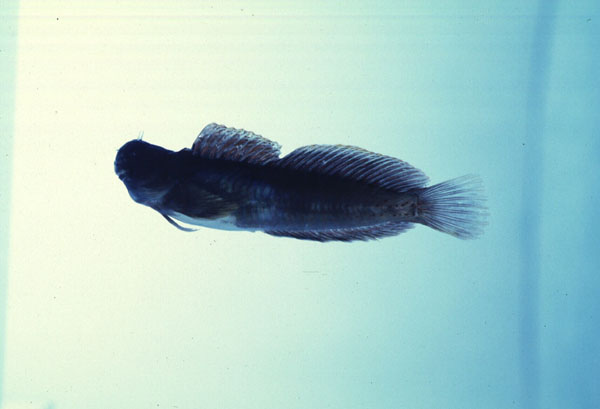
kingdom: Animalia
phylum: Chordata
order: Perciformes
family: Blenniidae
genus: Istiblennius
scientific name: Istiblennius edentulus
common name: Rippled rockskipper
